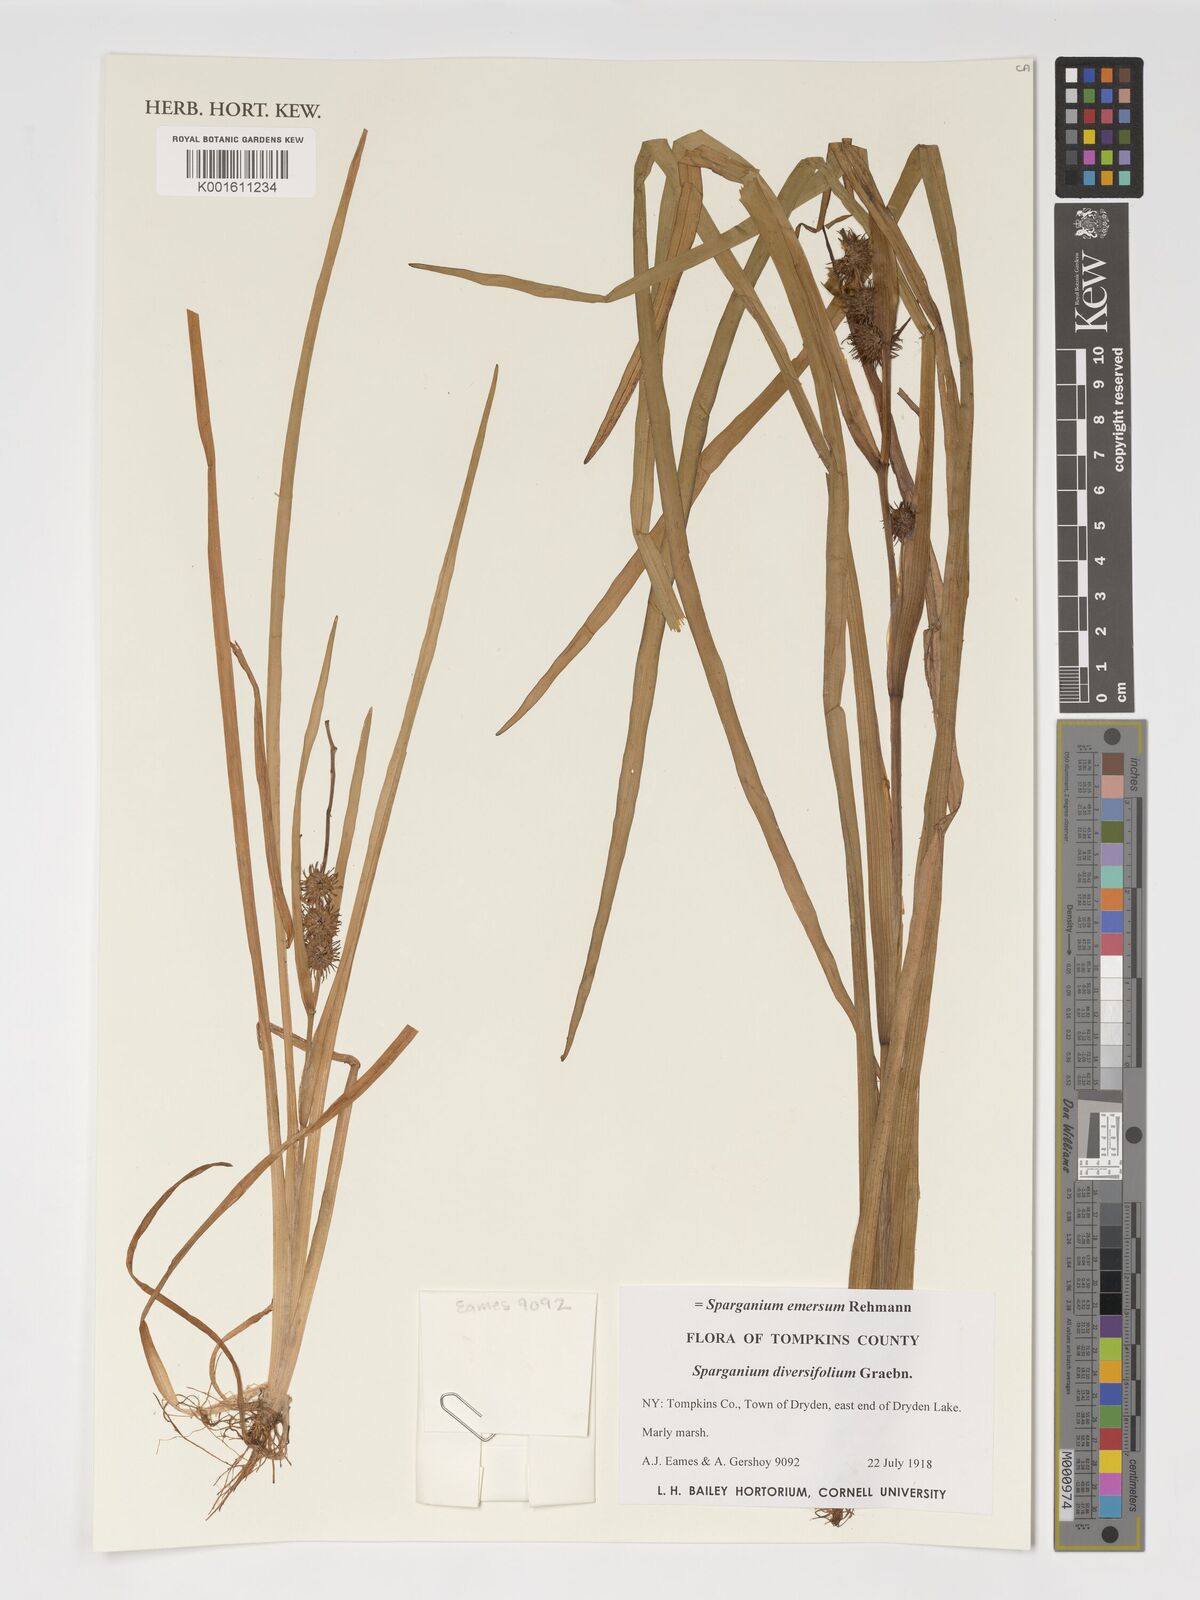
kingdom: Plantae
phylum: Tracheophyta
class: Liliopsida
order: Poales
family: Typhaceae
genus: Sparganium
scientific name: Sparganium emersum
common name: Unbranched bur-reed
